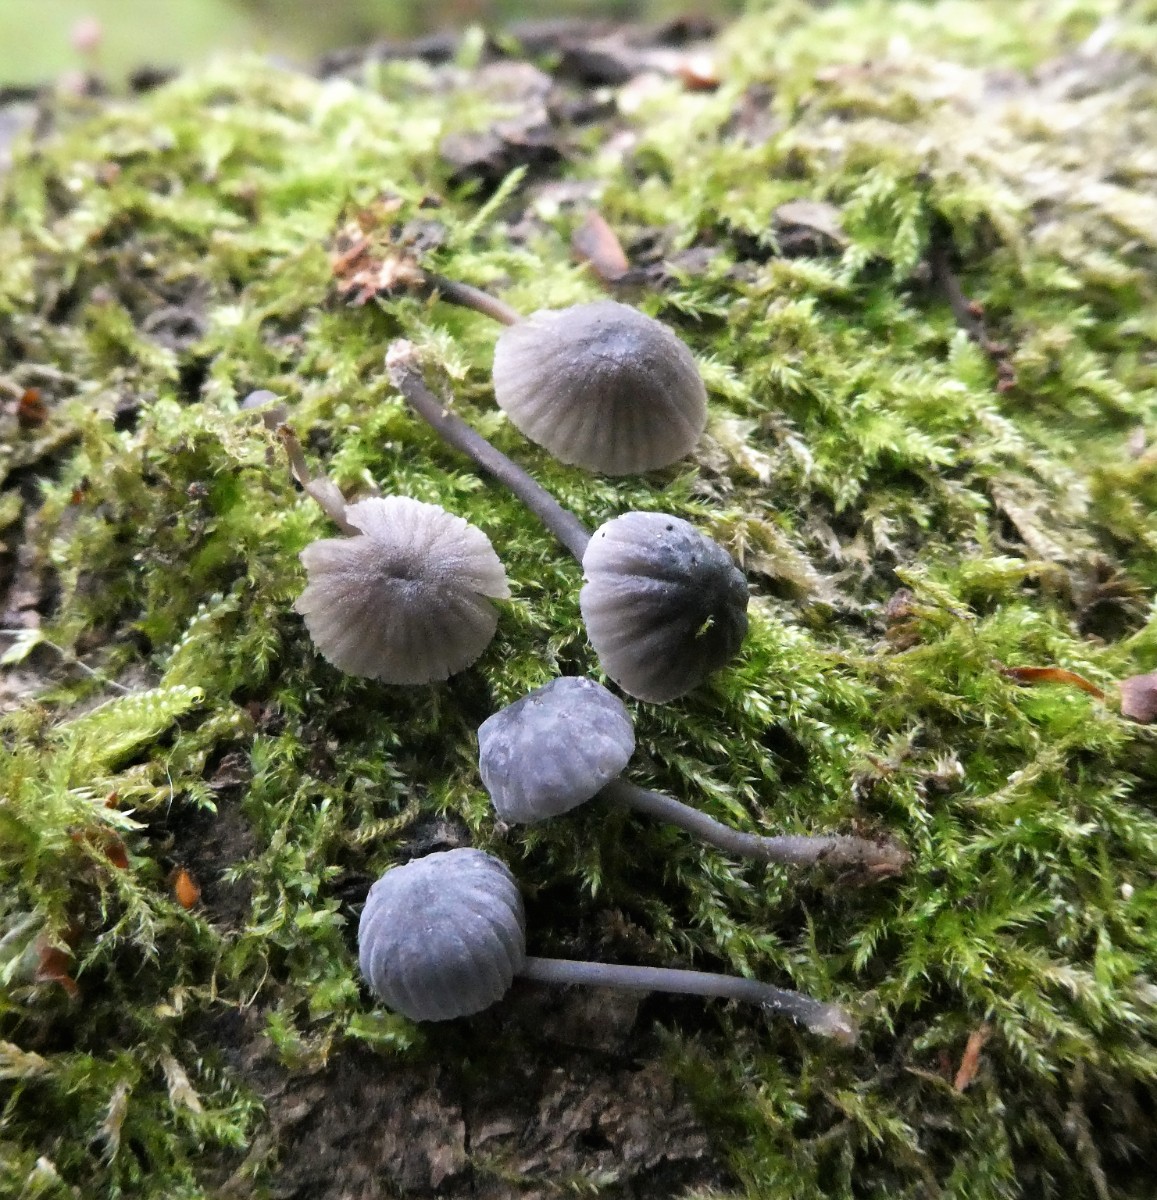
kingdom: Fungi
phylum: Basidiomycota
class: Agaricomycetes
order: Agaricales
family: Mycenaceae
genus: Mycena
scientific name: Mycena pseudocorticola
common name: gråblå bark-huesvamp
